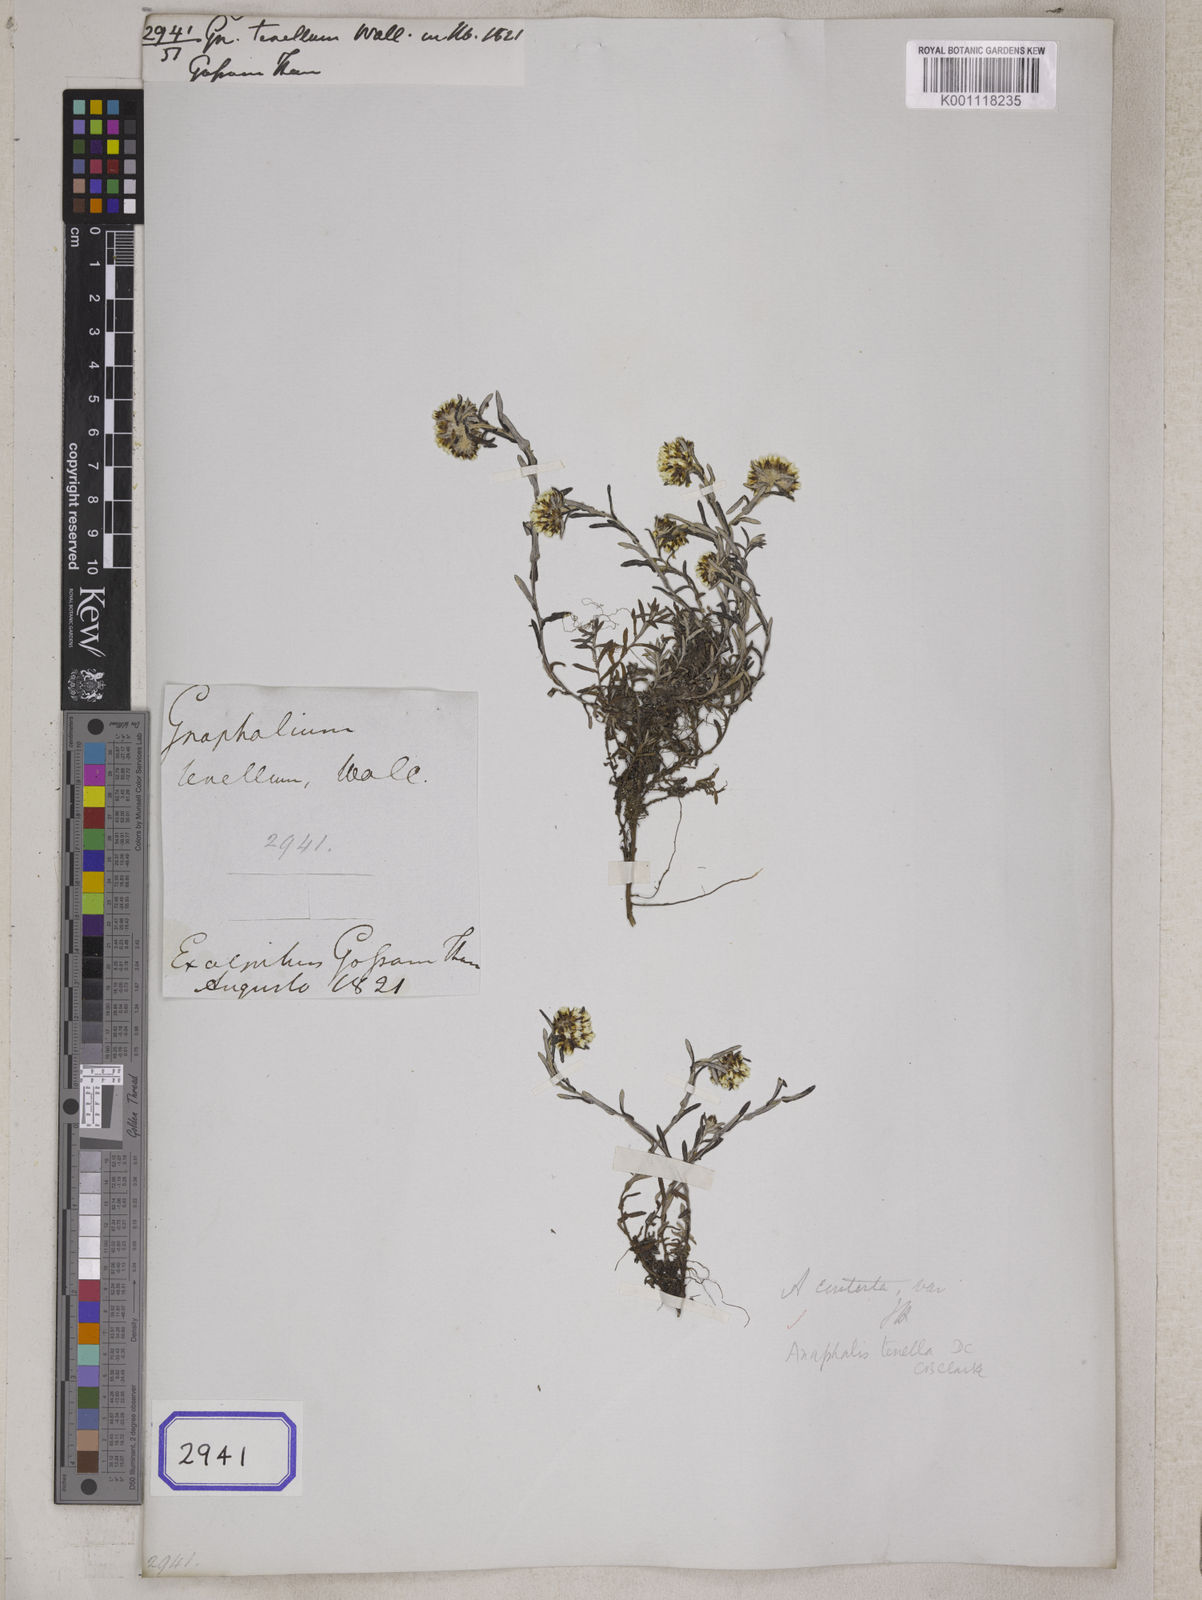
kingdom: Plantae
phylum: Tracheophyta
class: Magnoliopsida
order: Asterales
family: Asteraceae
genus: Anaphalis
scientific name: Anaphalis tenella
